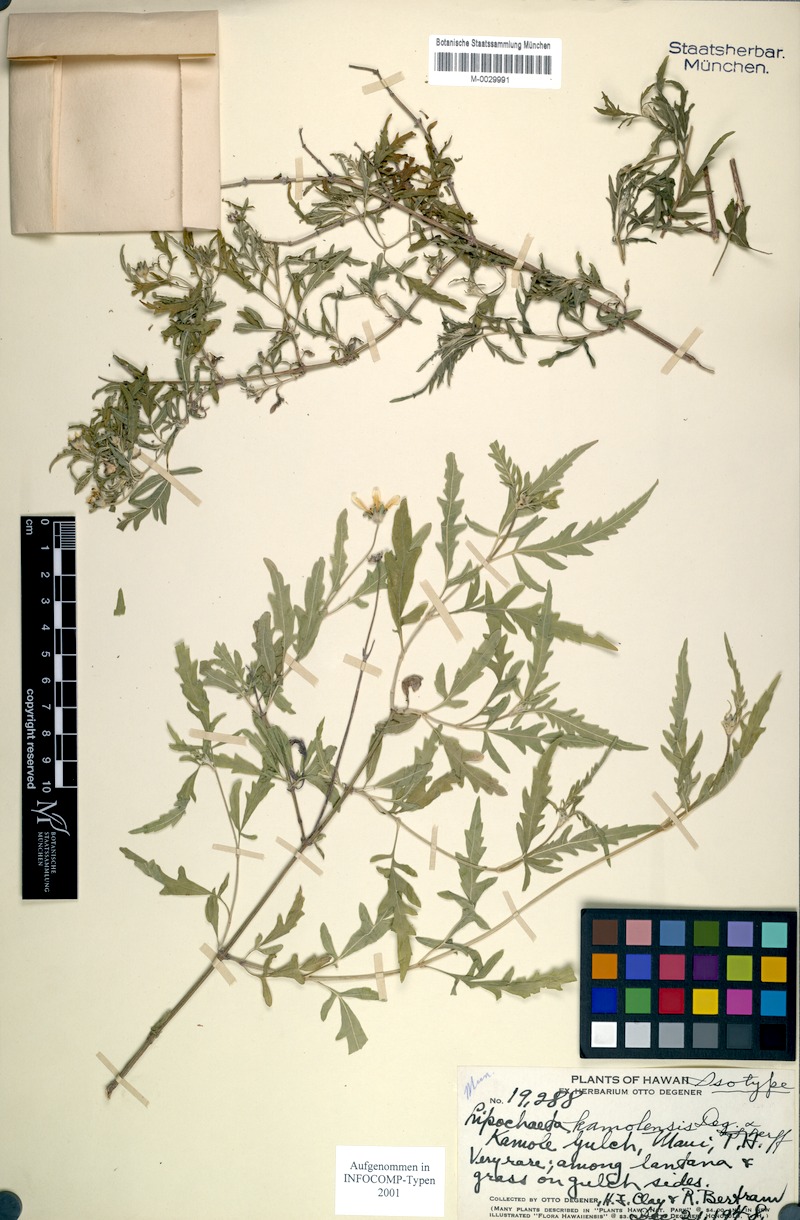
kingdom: Plantae
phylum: Tracheophyta
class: Magnoliopsida
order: Asterales
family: Asteraceae
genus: Lipochaeta
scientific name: Lipochaeta kamolensis
